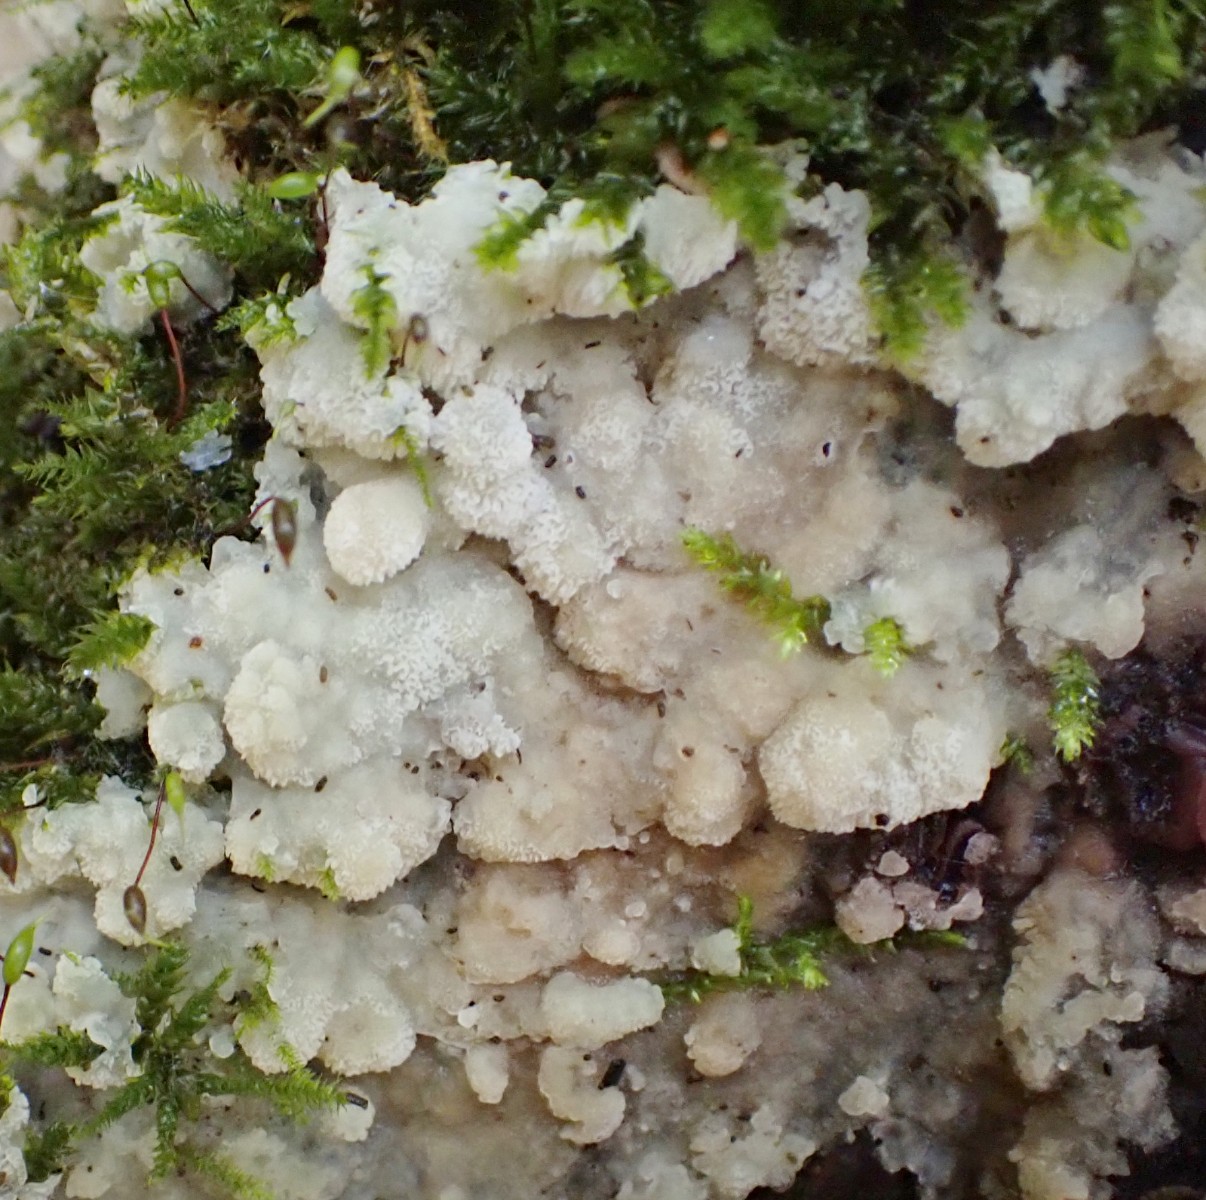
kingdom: Fungi
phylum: Basidiomycota
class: Agaricomycetes
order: Polyporales
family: Meruliaceae
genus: Physisporinus
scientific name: Physisporinus vitreus
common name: mastesvamp
